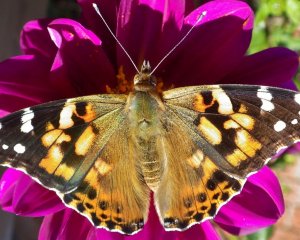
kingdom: Animalia
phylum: Arthropoda
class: Insecta
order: Lepidoptera
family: Nymphalidae
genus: Vanessa
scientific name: Vanessa atalanta
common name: Red Admiral
